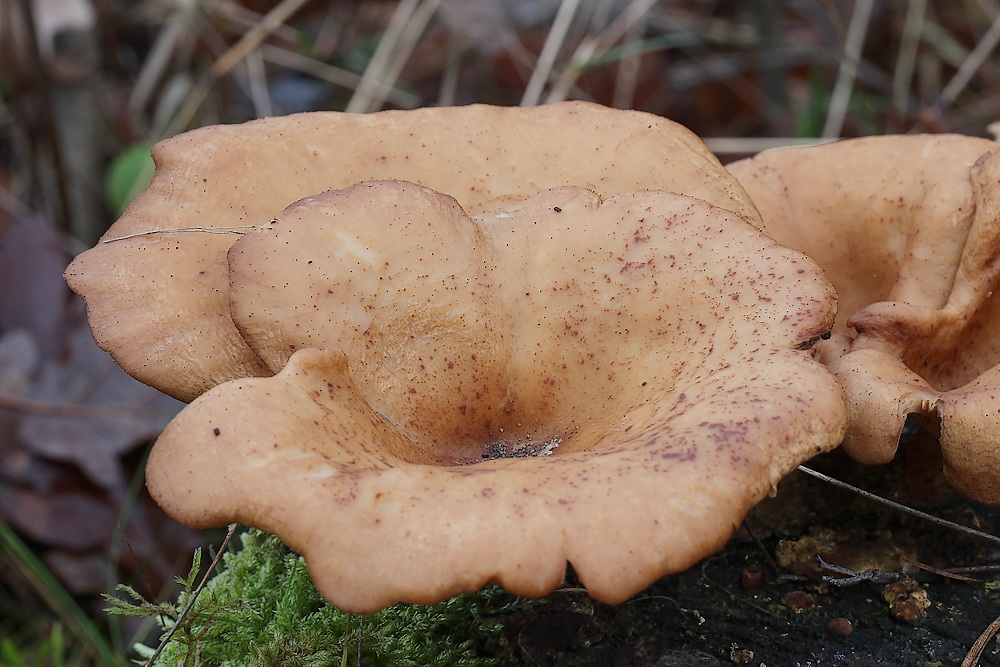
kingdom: Fungi
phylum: Basidiomycota
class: Agaricomycetes
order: Polyporales
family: Panaceae
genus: Panus
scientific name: Panus conchatus
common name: filtstokket læderhat
